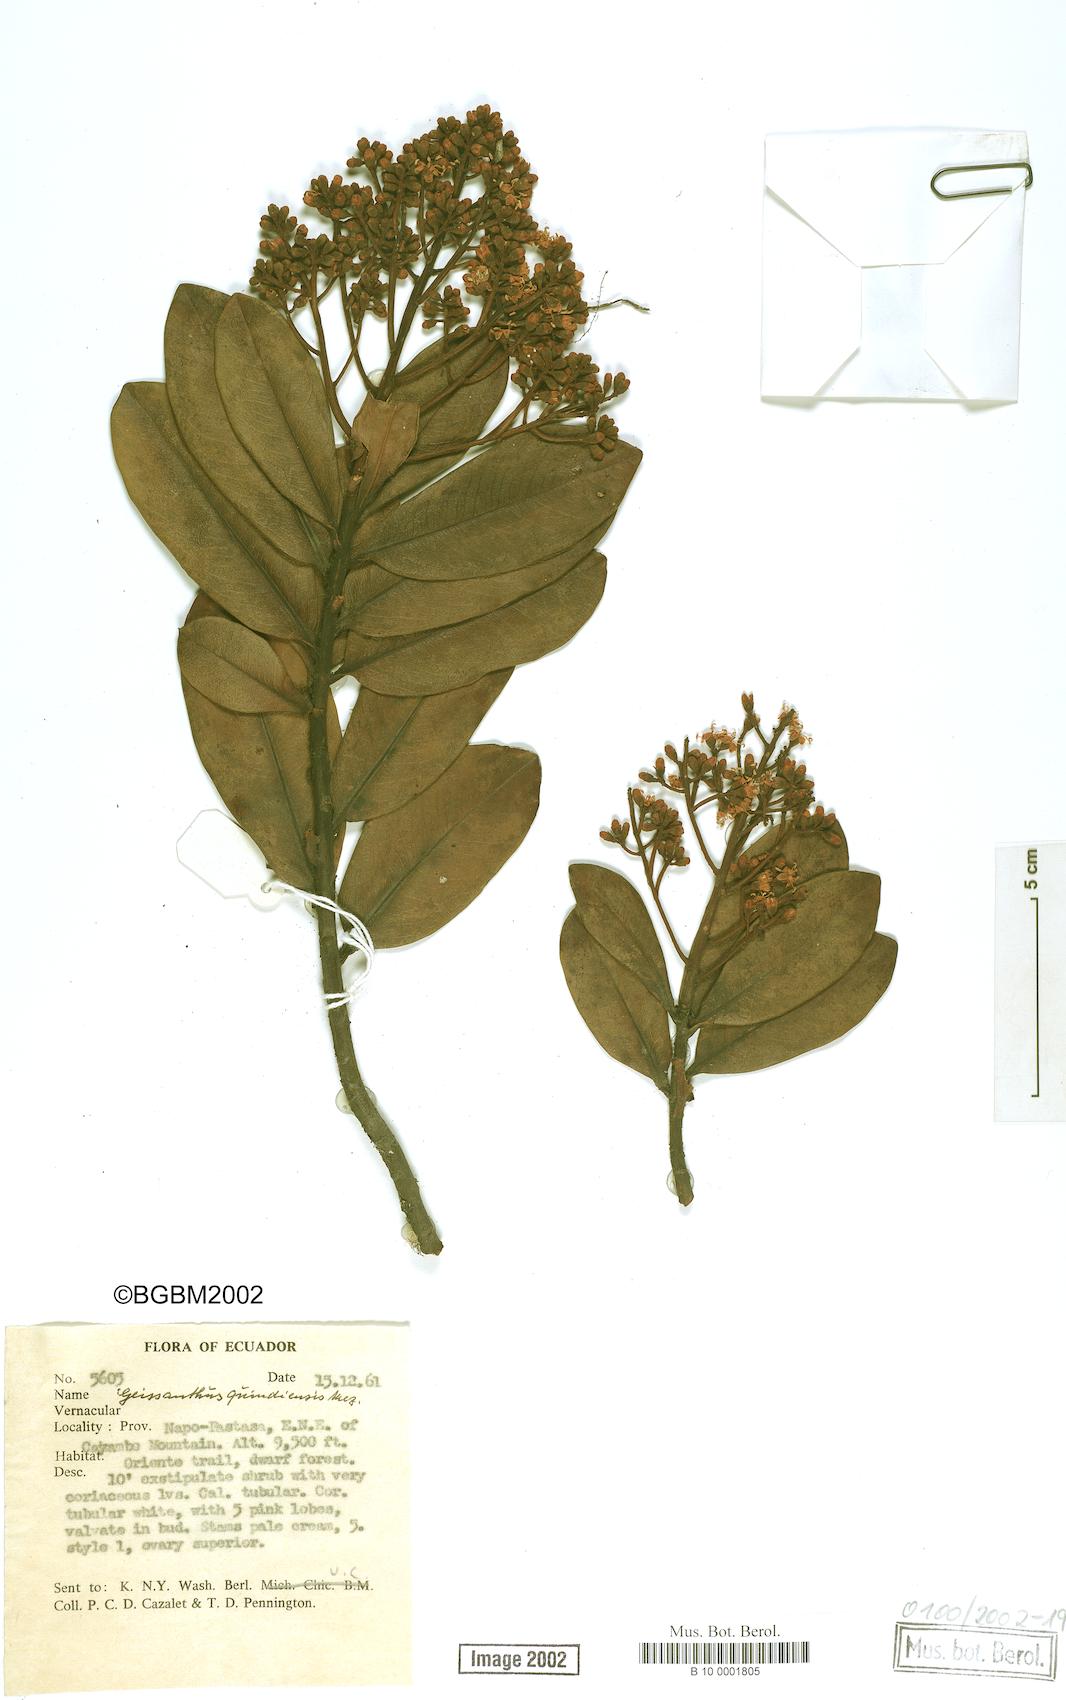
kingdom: Plantae
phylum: Tracheophyta
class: Magnoliopsida
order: Ericales
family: Primulaceae
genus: Geissanthus
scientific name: Geissanthus quindiensis
